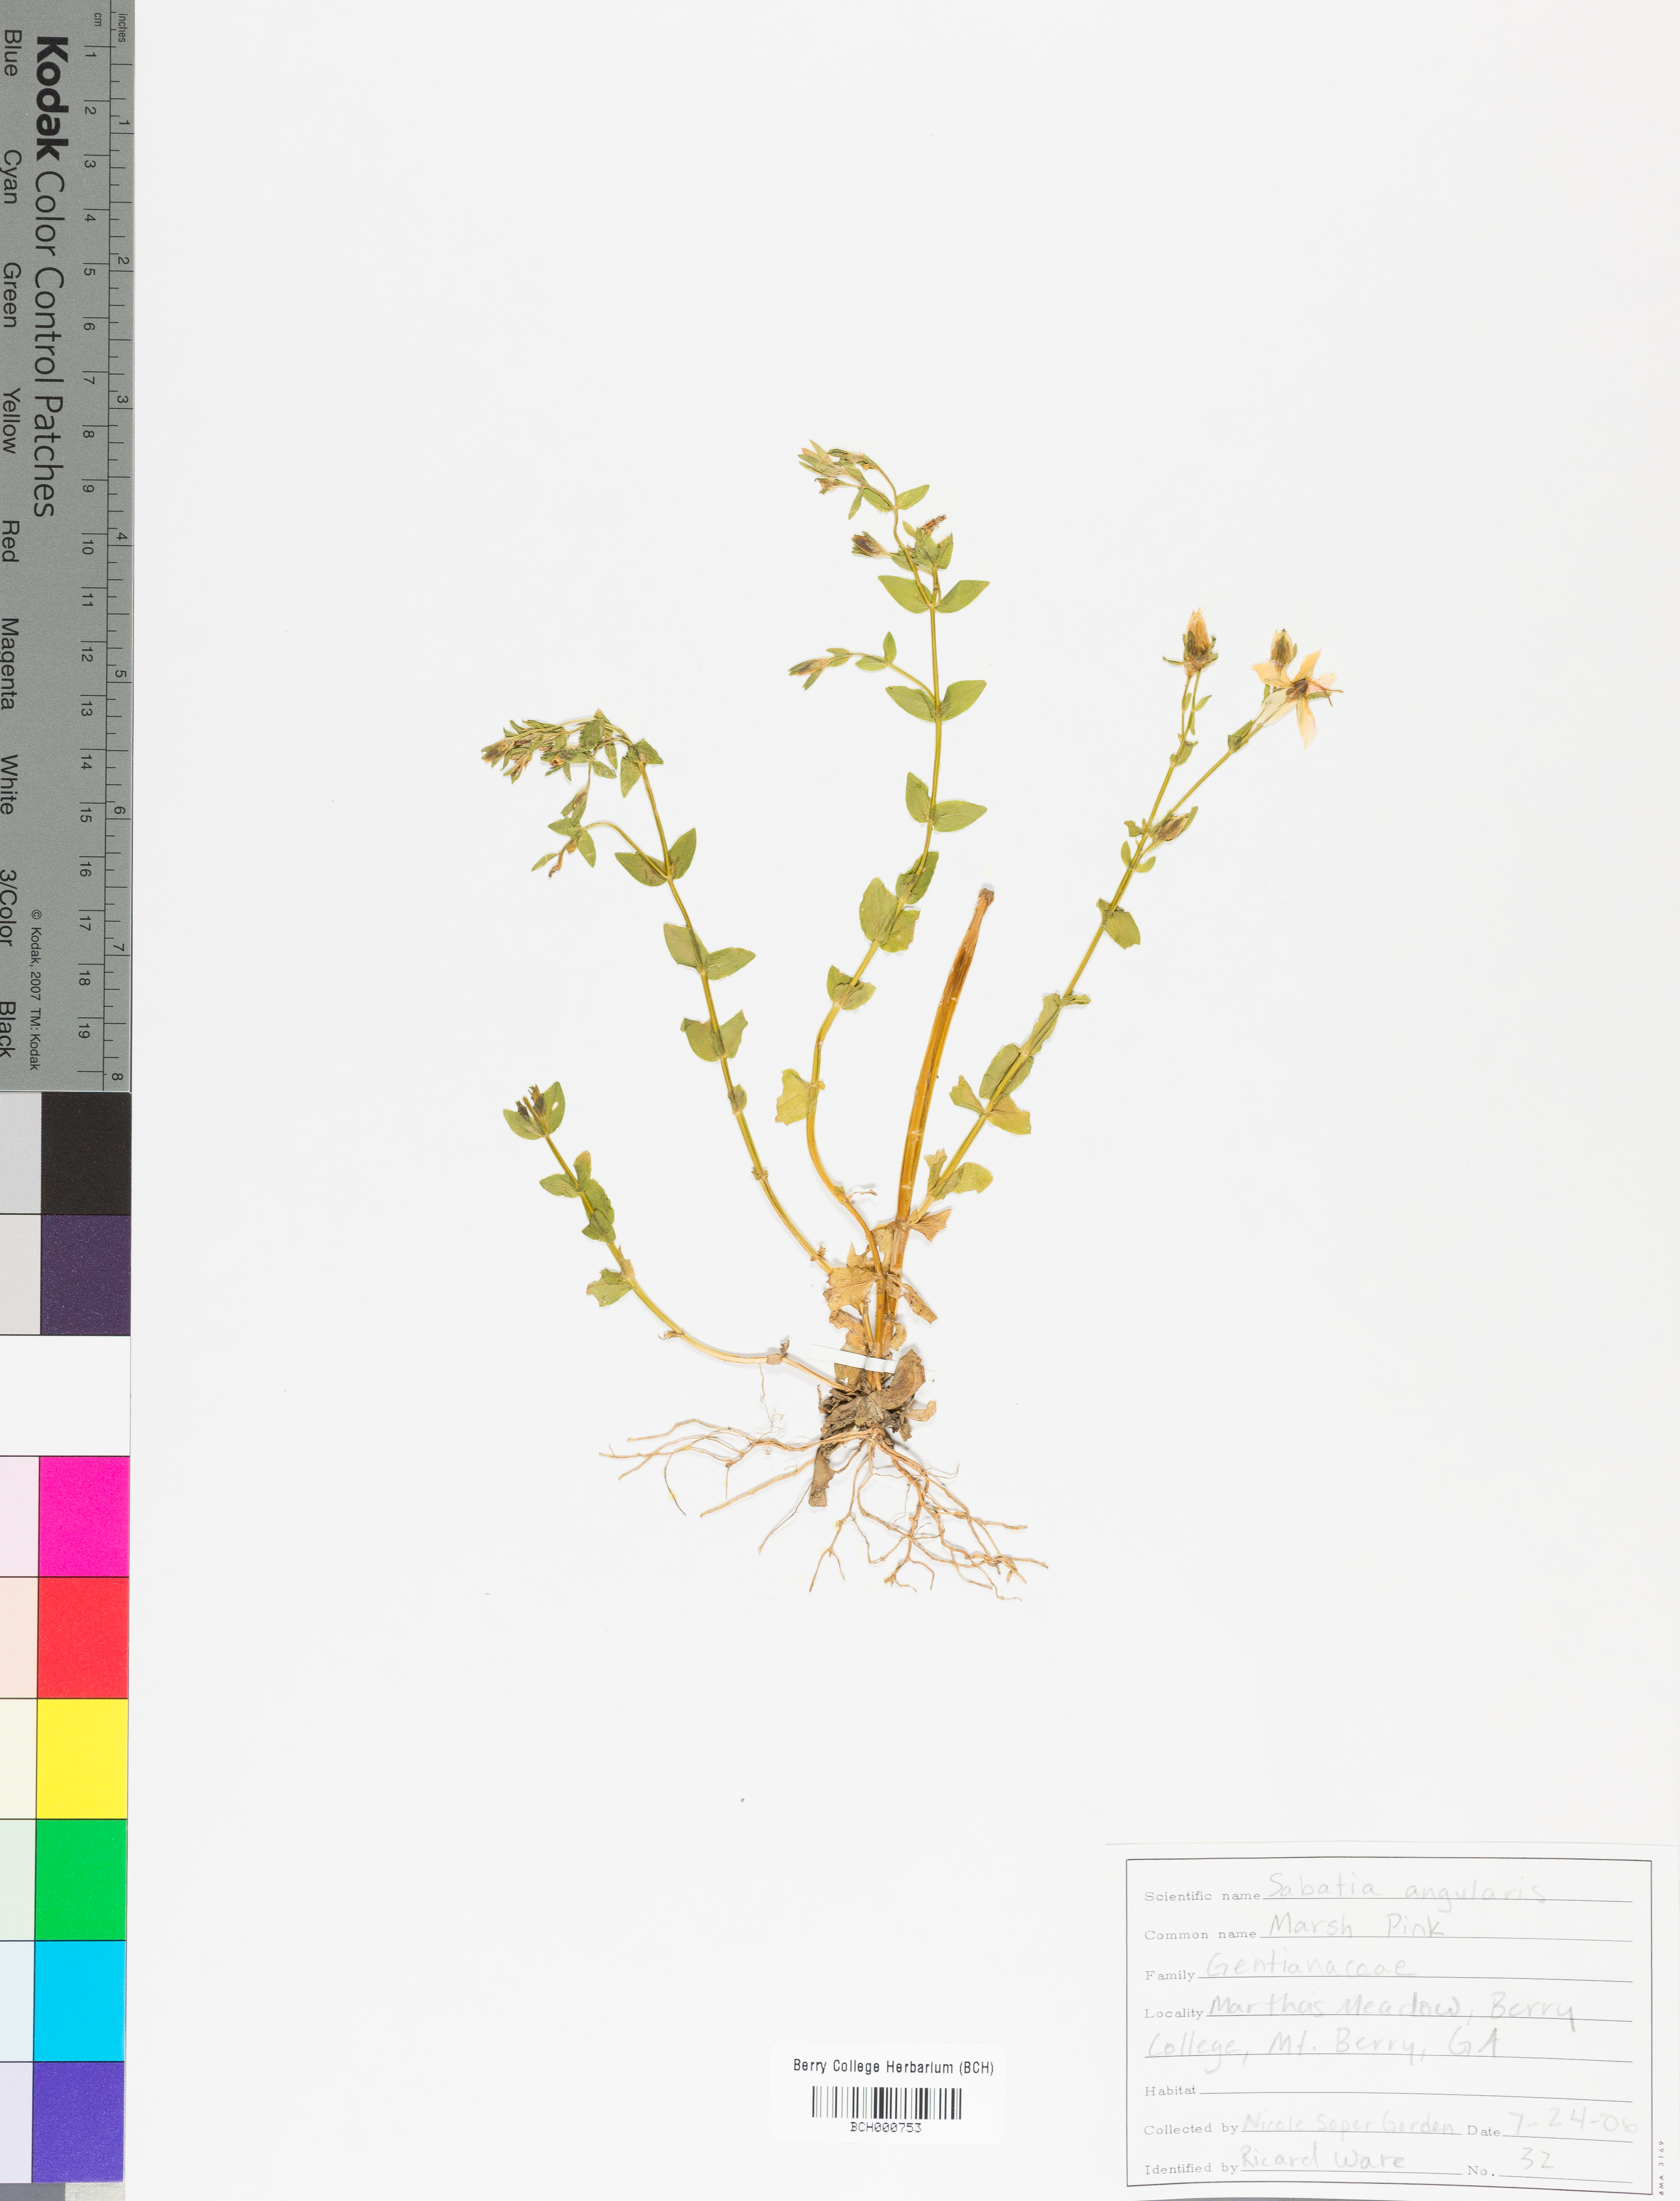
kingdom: Plantae
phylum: Tracheophyta
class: Magnoliopsida
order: Gentianales
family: Gentianaceae
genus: Sabatia
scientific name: Sabatia angularis
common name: Rose-pink
